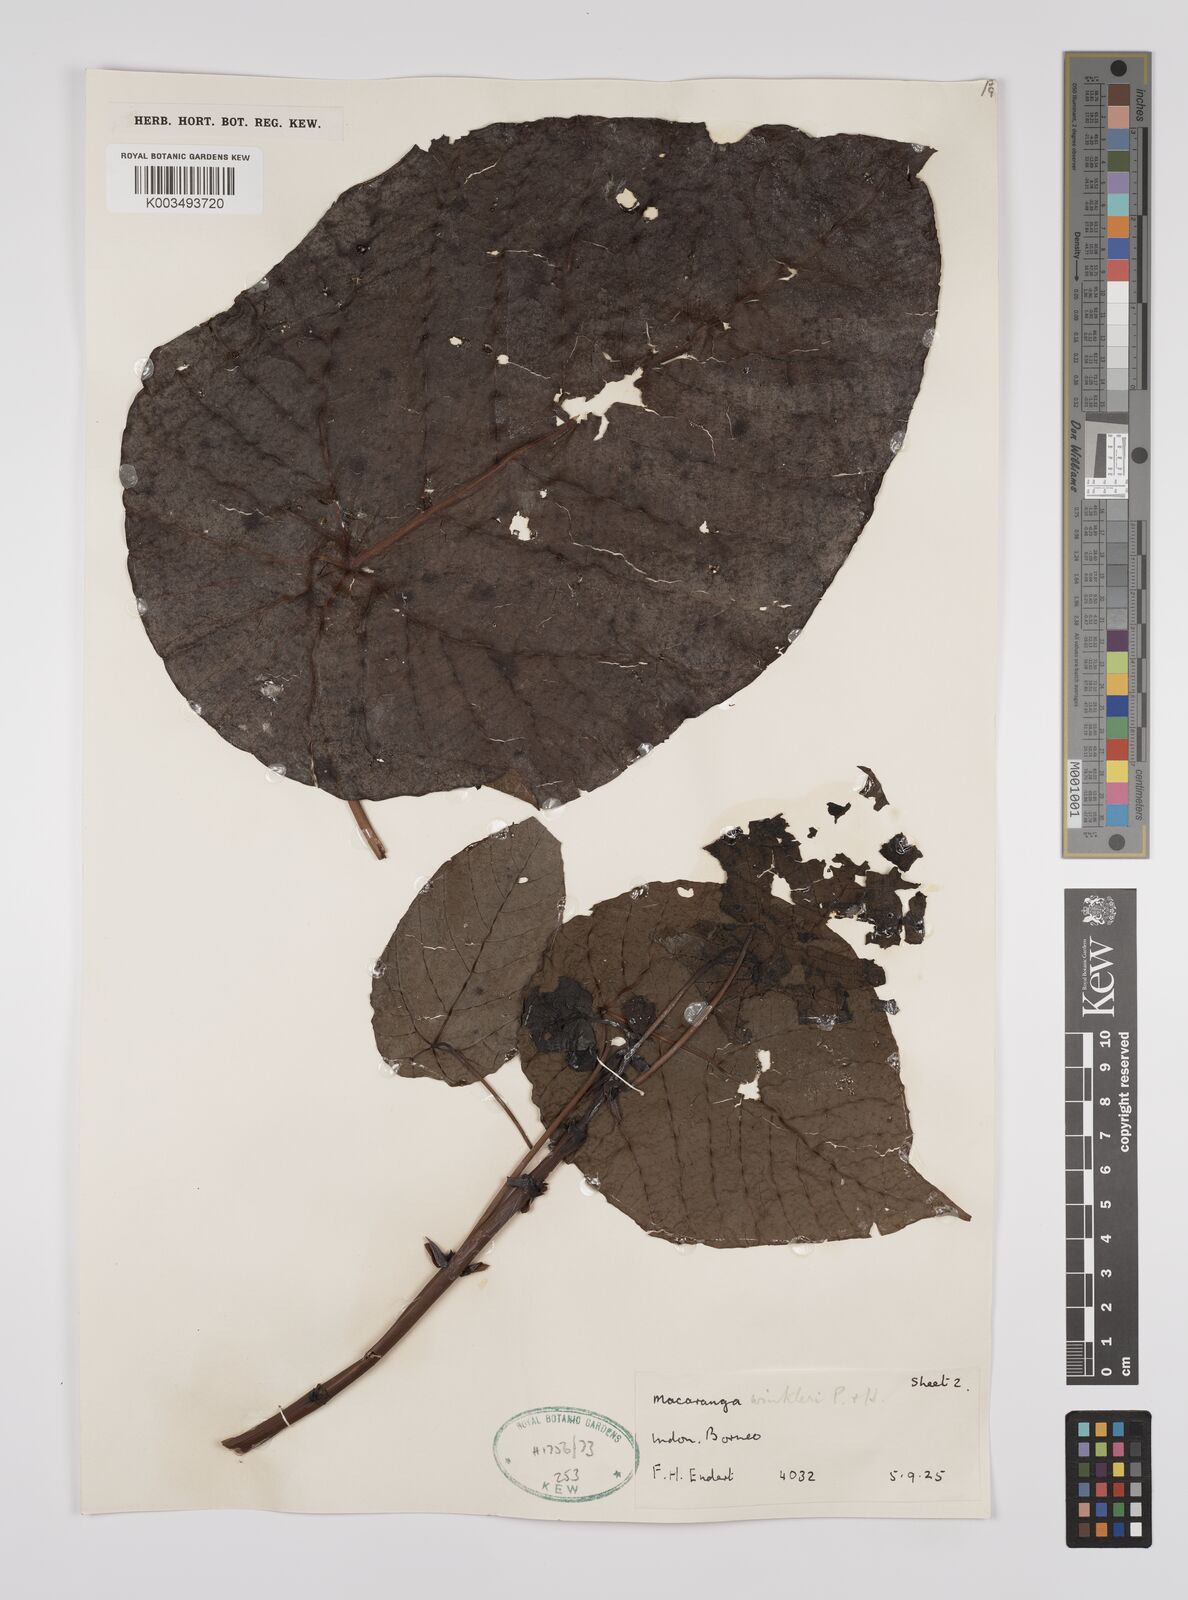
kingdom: Plantae
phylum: Tracheophyta
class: Magnoliopsida
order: Malpighiales
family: Euphorbiaceae
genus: Macaranga
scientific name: Macaranga winkleri
